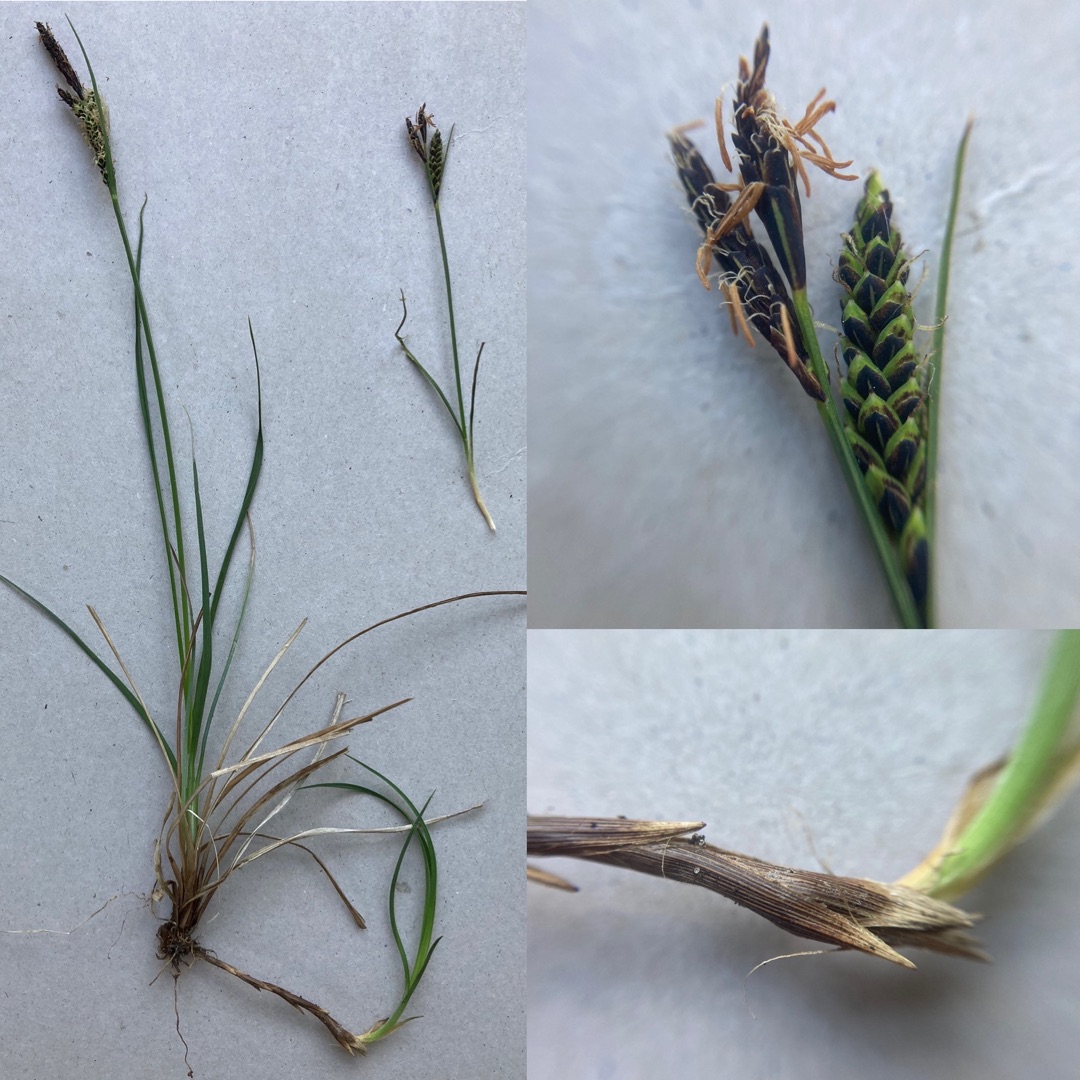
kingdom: Plantae
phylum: Tracheophyta
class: Liliopsida
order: Poales
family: Cyperaceae
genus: Carex
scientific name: Carex nigra
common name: Almindelig star
